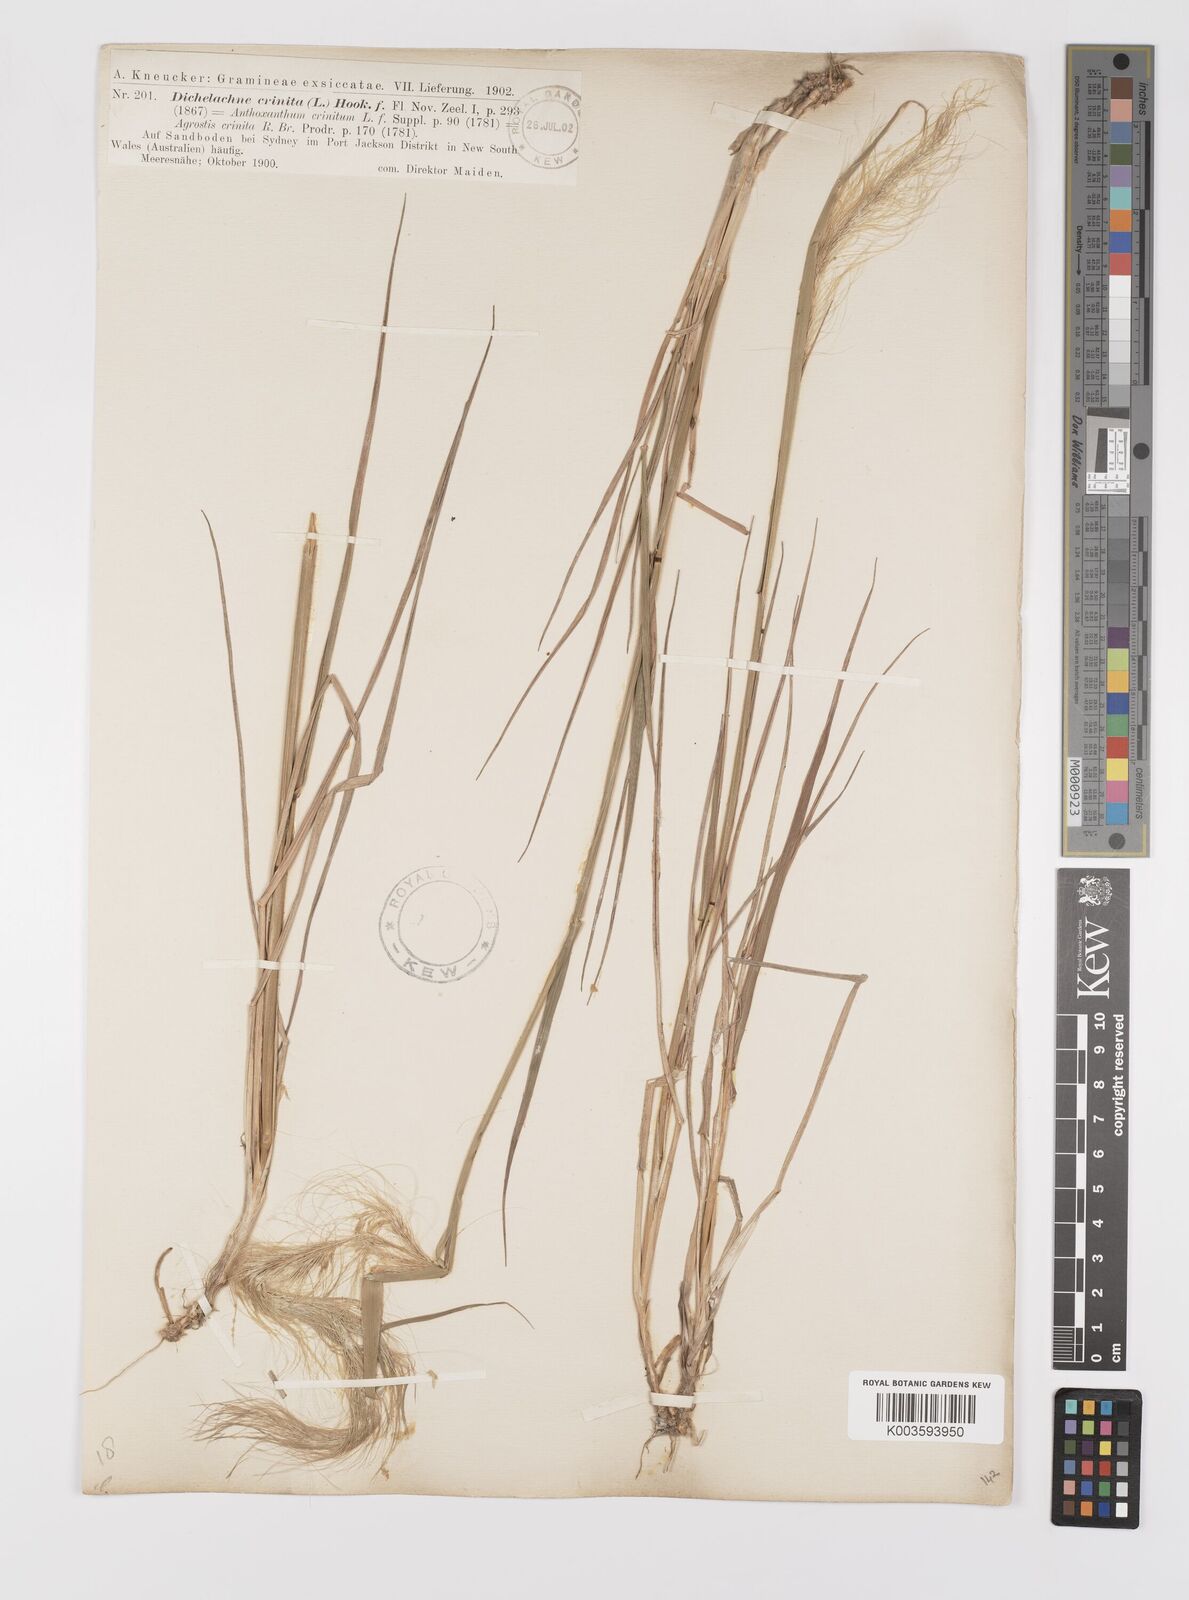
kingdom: Plantae
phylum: Tracheophyta
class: Liliopsida
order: Poales
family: Poaceae
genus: Dichelachne
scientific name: Dichelachne
